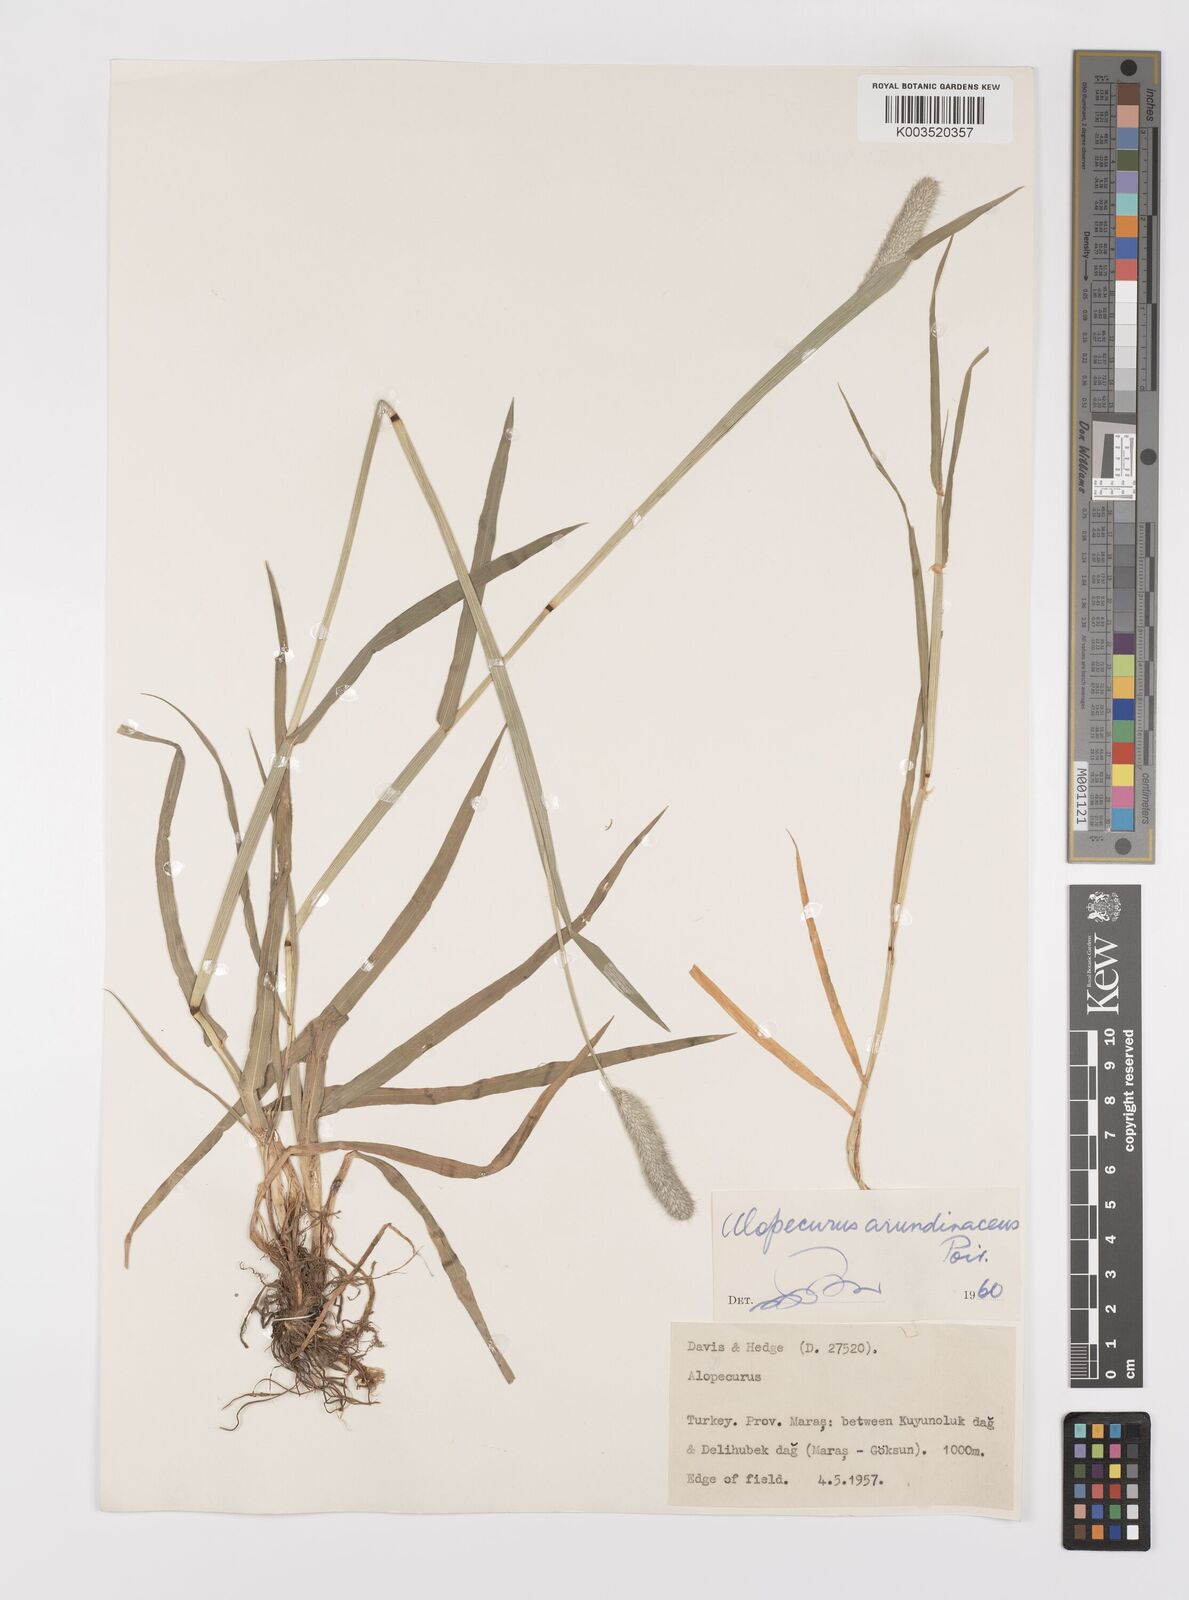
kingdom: Plantae
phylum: Tracheophyta
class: Liliopsida
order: Poales
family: Poaceae
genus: Alopecurus
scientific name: Alopecurus arundinaceus
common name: Creeping meadow foxtail
